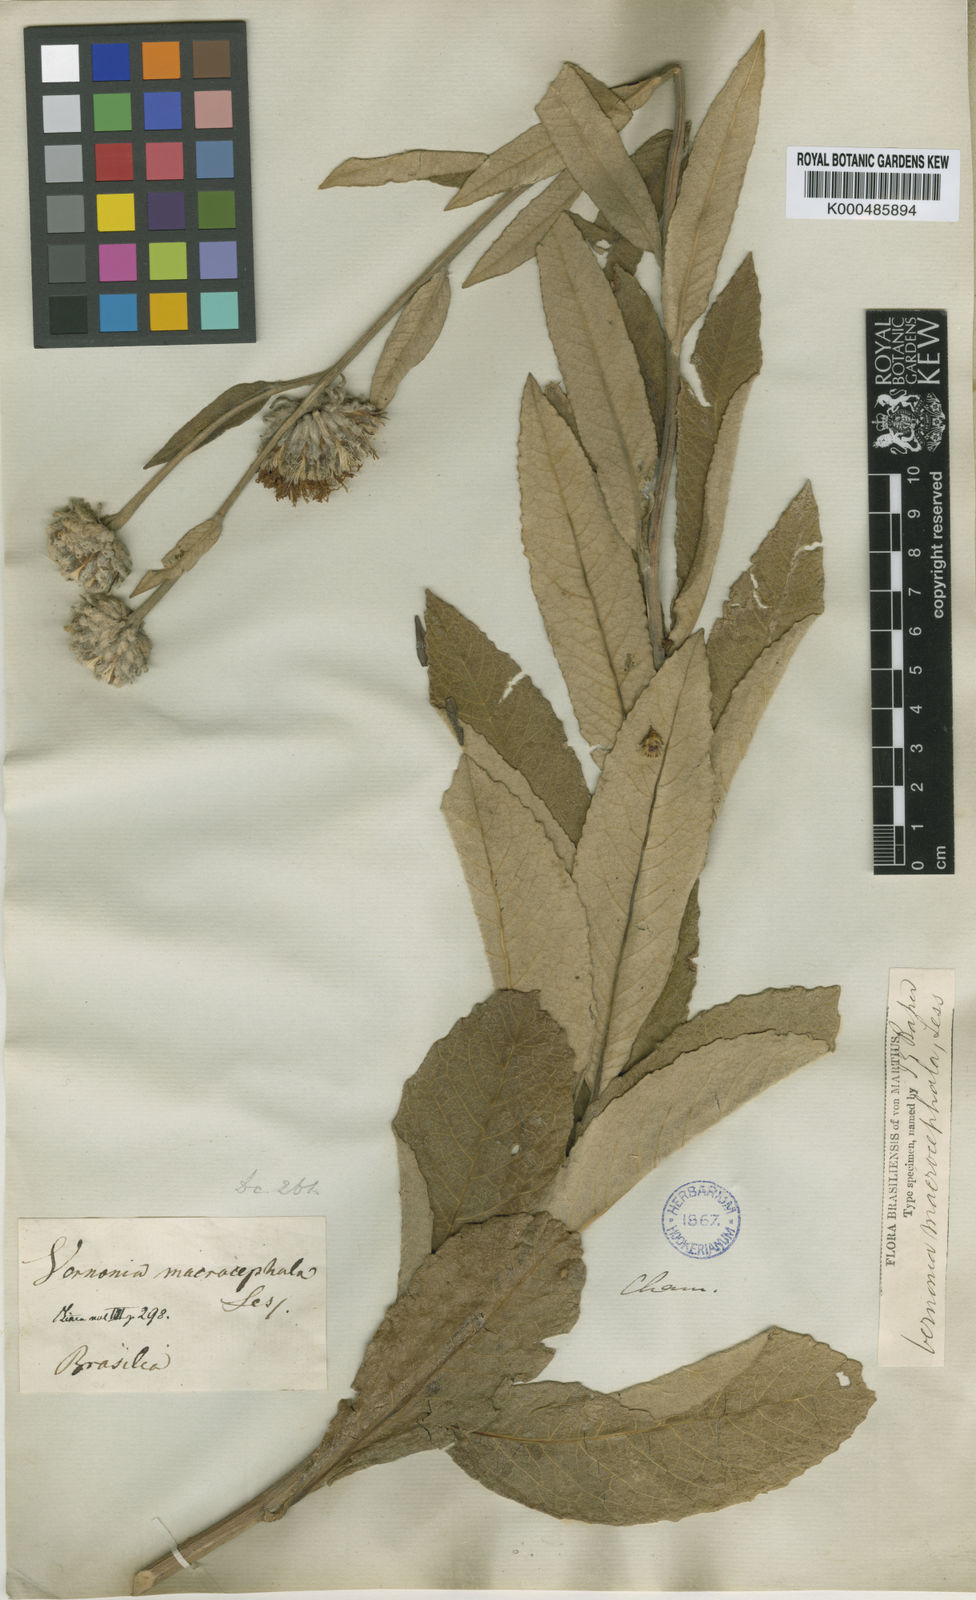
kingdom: Plantae
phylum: Tracheophyta
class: Magnoliopsida
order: Asterales
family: Asteraceae
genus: Lessingianthus
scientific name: Lessingianthus macrocephalus
